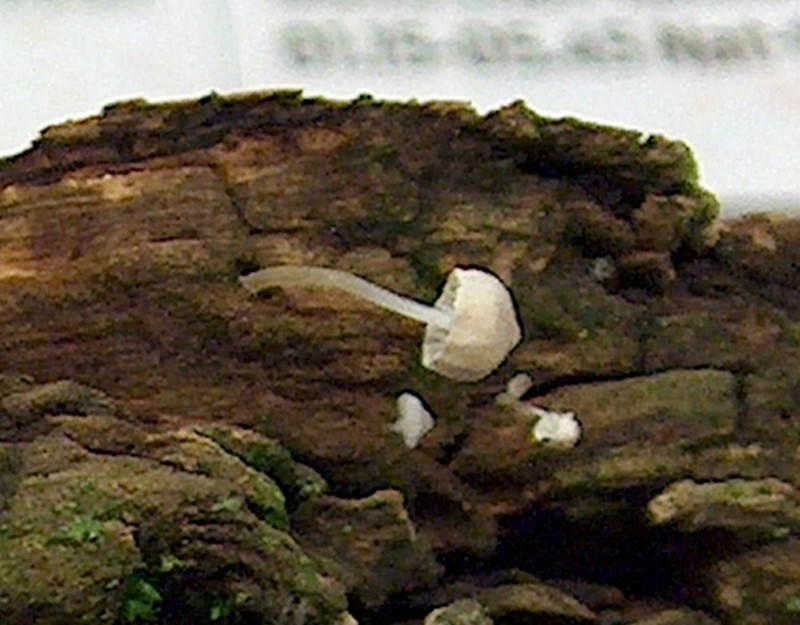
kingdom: Fungi
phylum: Basidiomycota
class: Agaricomycetes
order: Agaricales
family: Porotheleaceae
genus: Phloeomana
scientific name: Phloeomana hiemalis
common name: sen huesvamp
